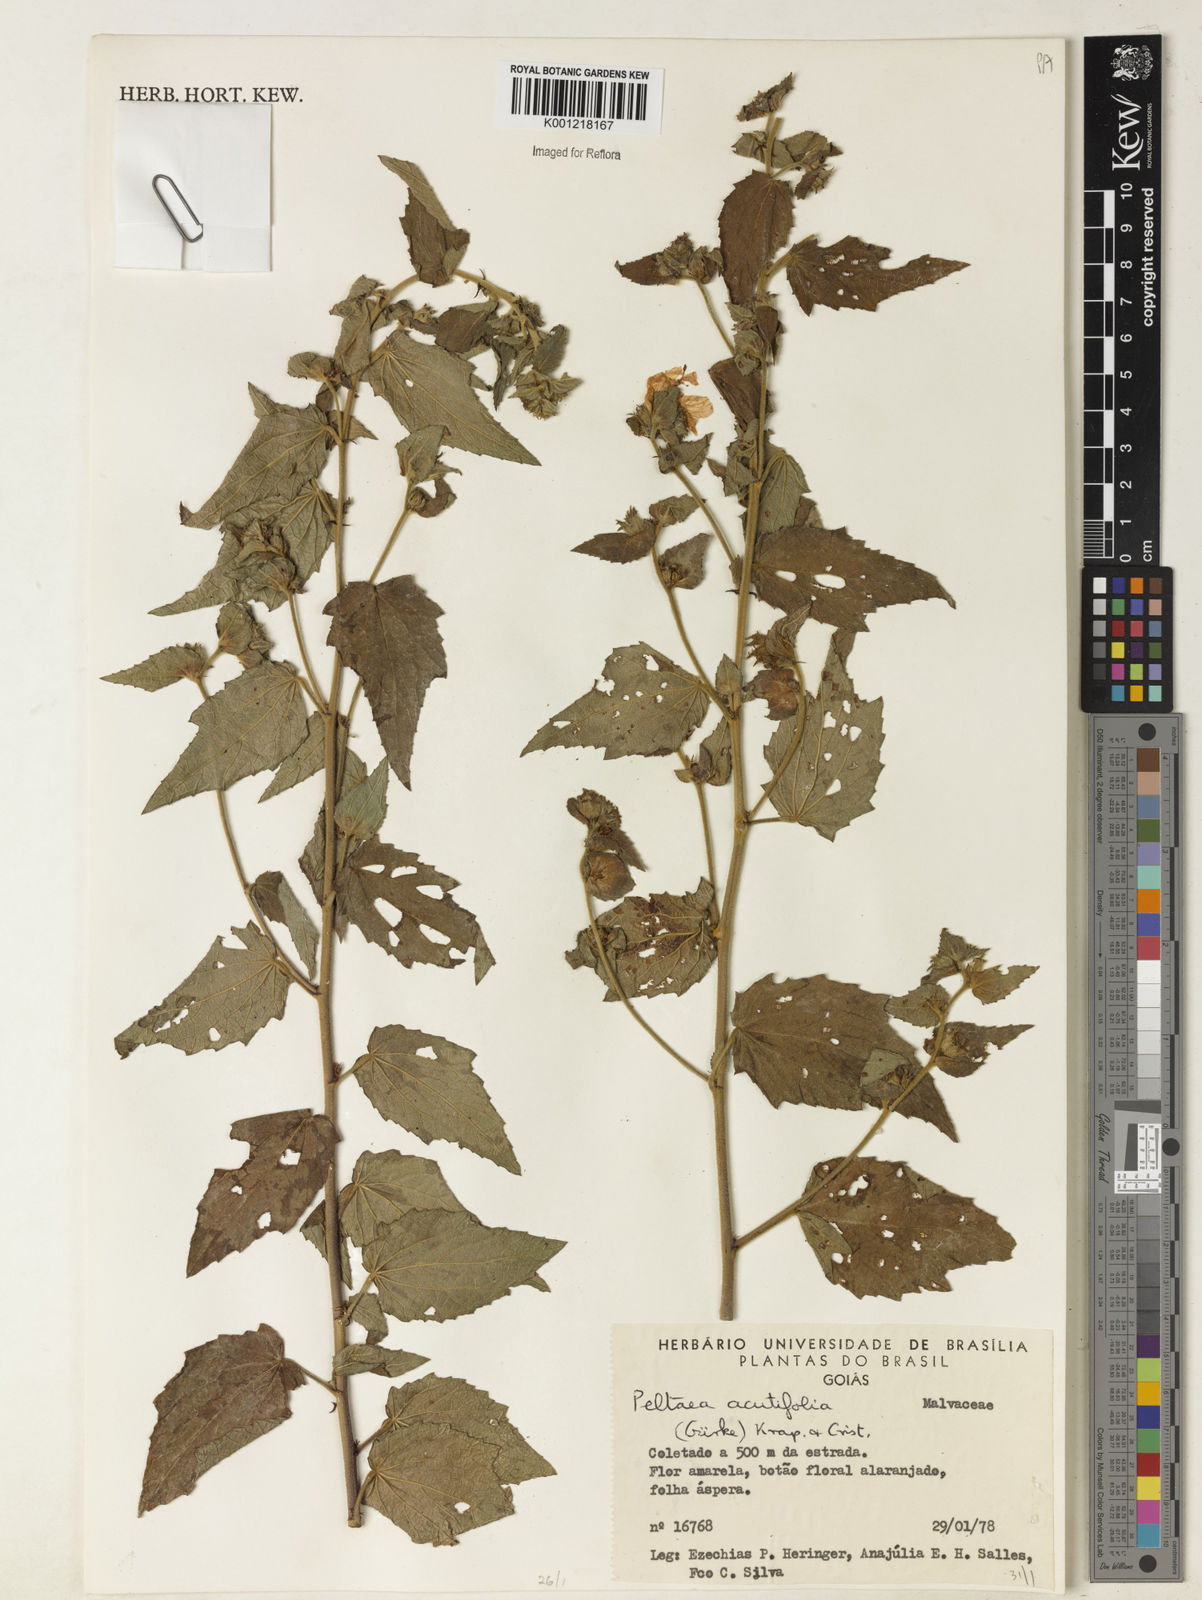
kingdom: Plantae
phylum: Tracheophyta
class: Magnoliopsida
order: Malvales
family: Malvaceae
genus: Peltaea
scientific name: Peltaea
